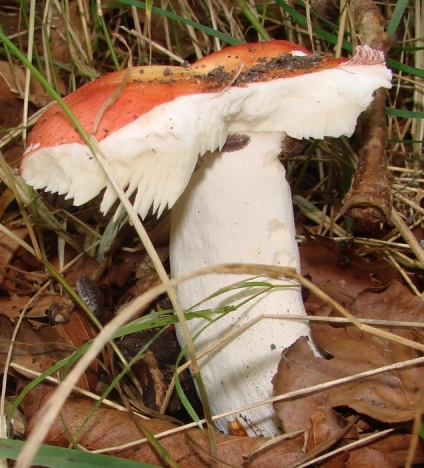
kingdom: Fungi
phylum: Basidiomycota
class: Agaricomycetes
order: Russulales
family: Russulaceae
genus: Russula
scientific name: Russula pseudointegra
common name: cinnoberrød skørhat
